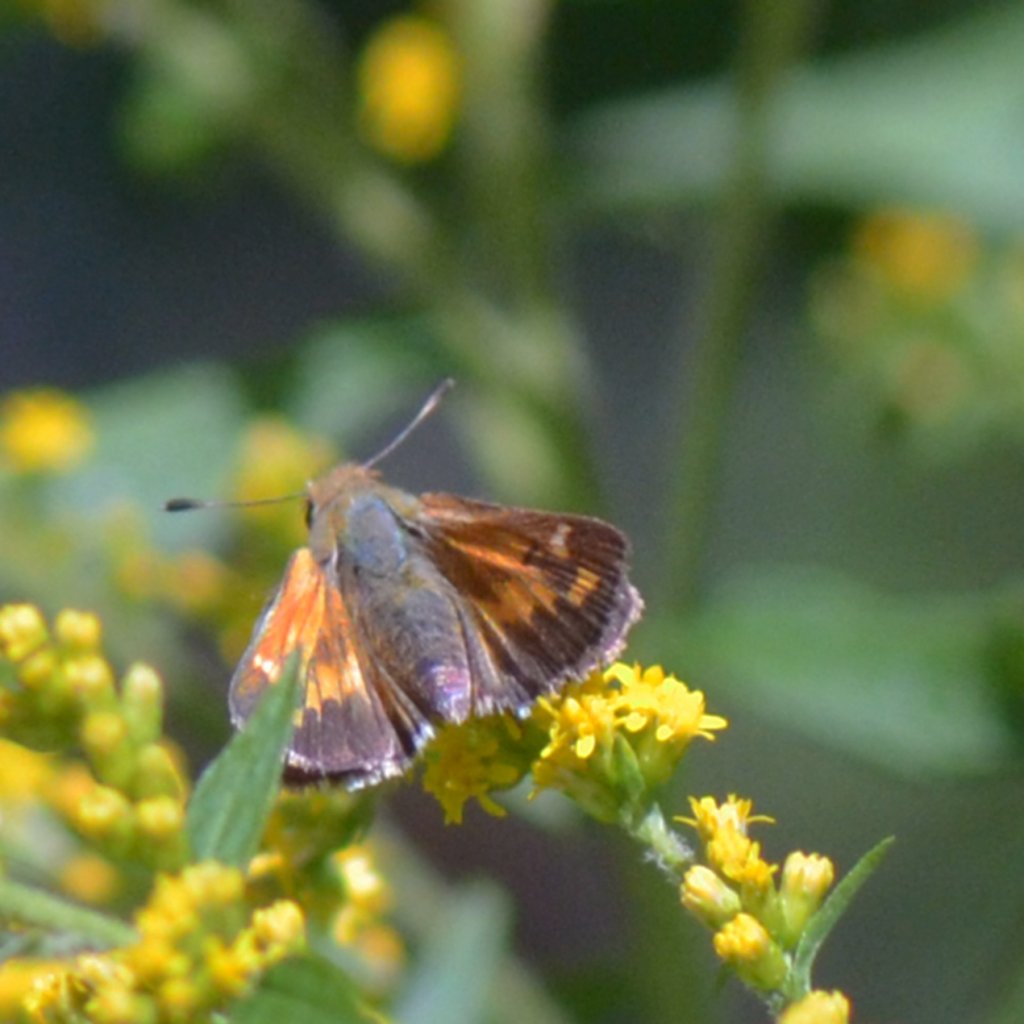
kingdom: Animalia
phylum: Arthropoda
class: Insecta
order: Lepidoptera
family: Hesperiidae
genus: Hesperia
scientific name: Hesperia comma
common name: Common Branded Skipper
